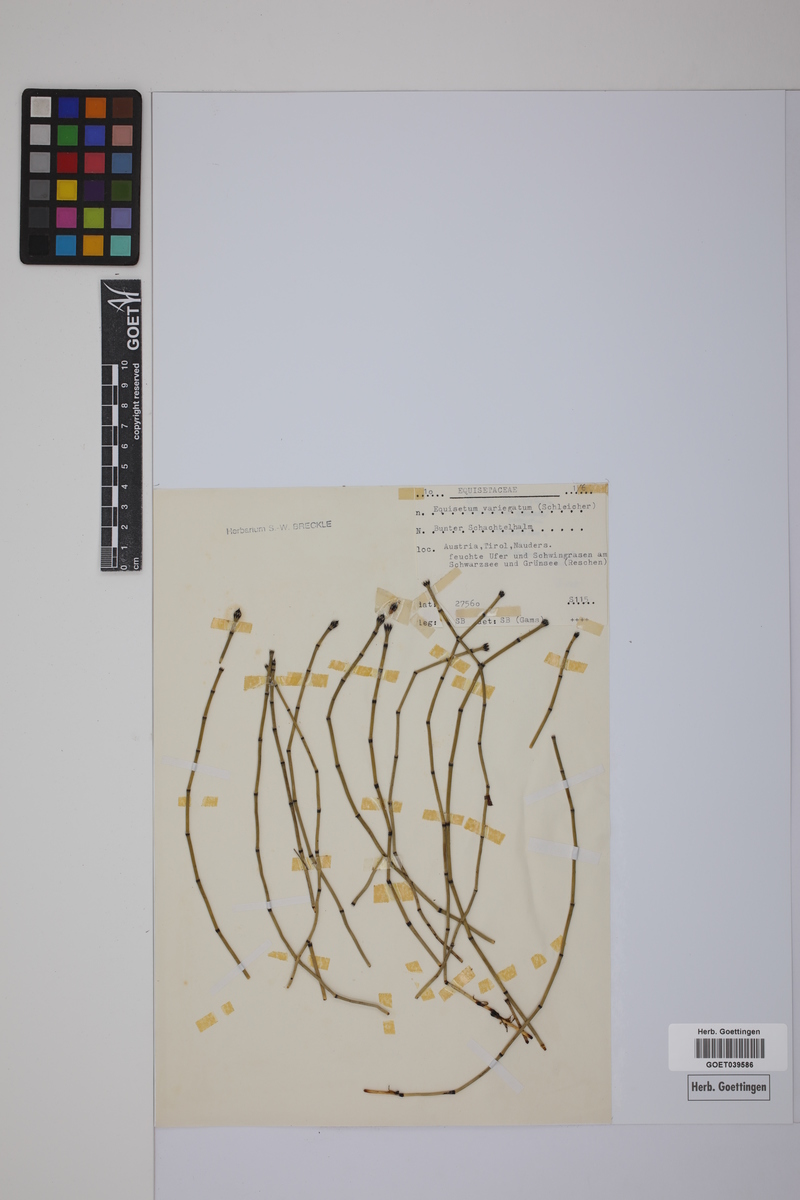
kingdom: Plantae
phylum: Tracheophyta
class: Polypodiopsida
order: Equisetales
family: Equisetaceae
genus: Equisetum
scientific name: Equisetum variegatum
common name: Variegated horsetail
